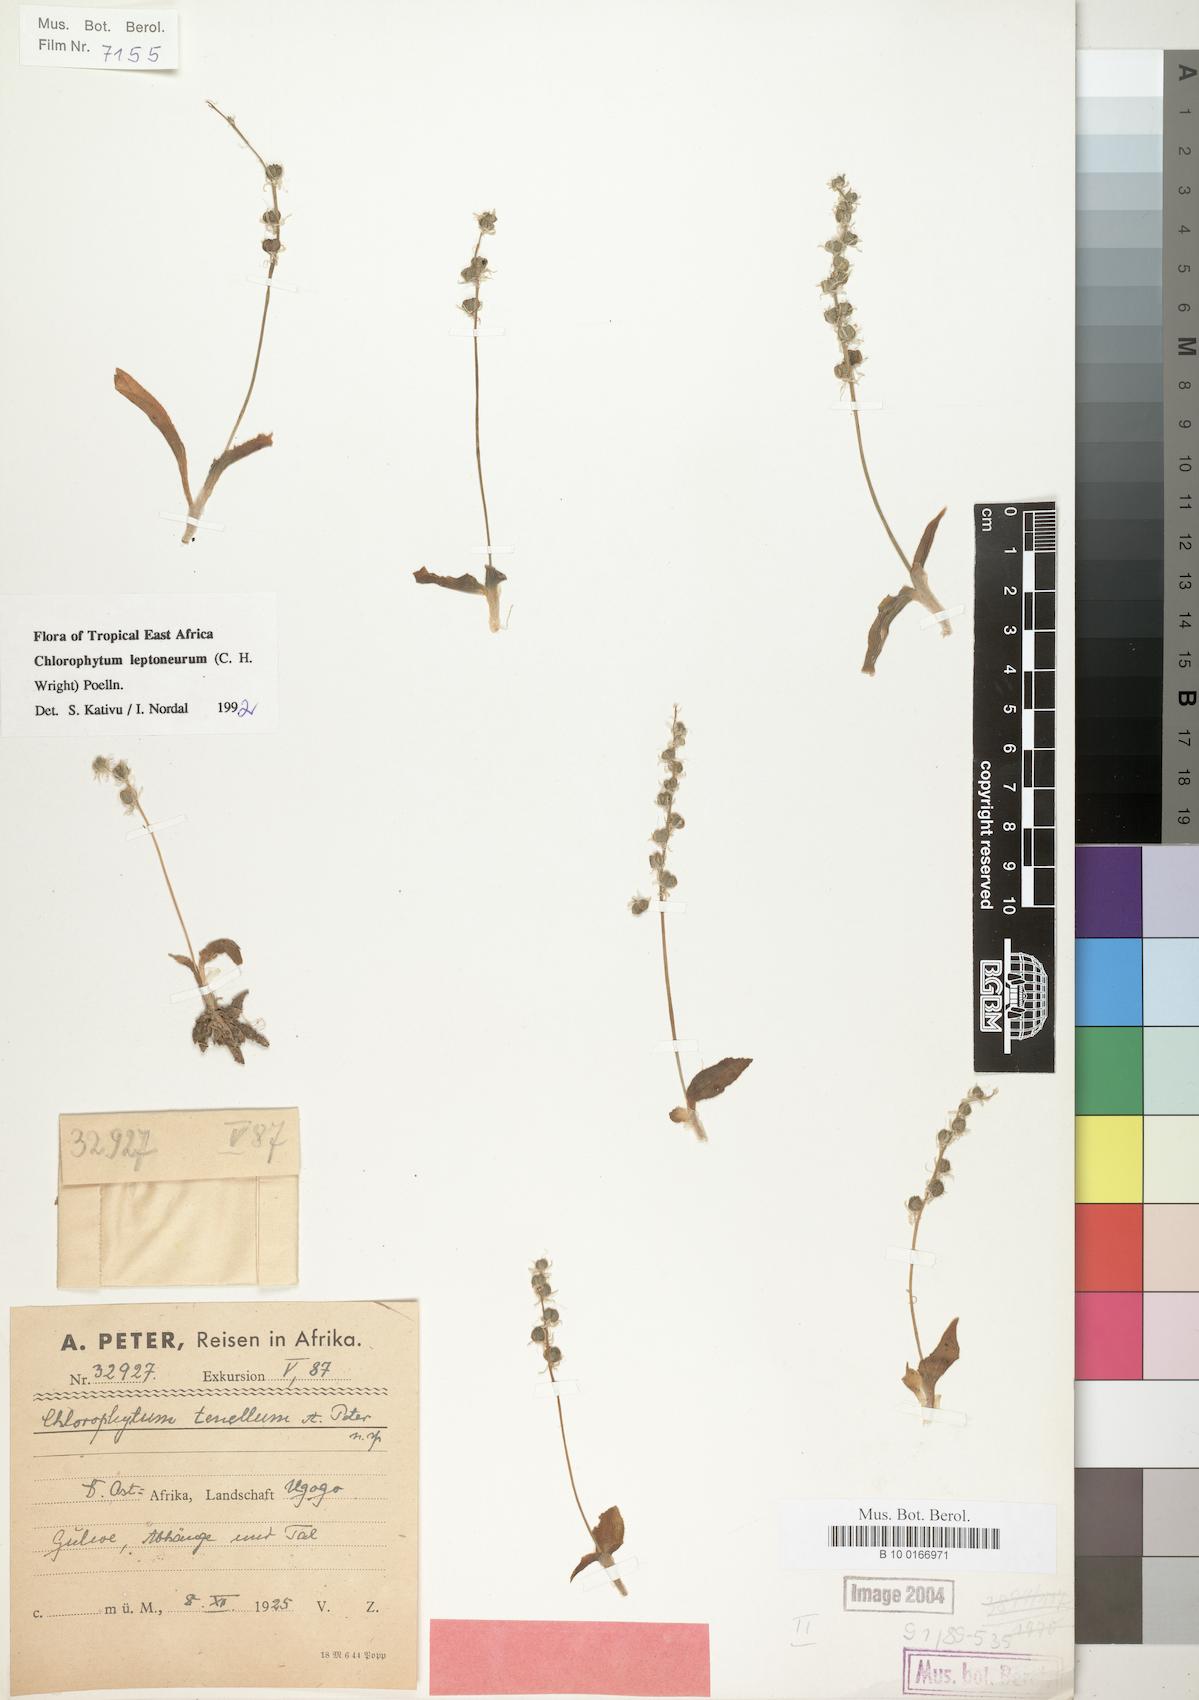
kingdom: Plantae
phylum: Tracheophyta
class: Liliopsida
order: Asparagales
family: Asparagaceae
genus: Chlorophytum
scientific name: Chlorophytum leptoneurum
